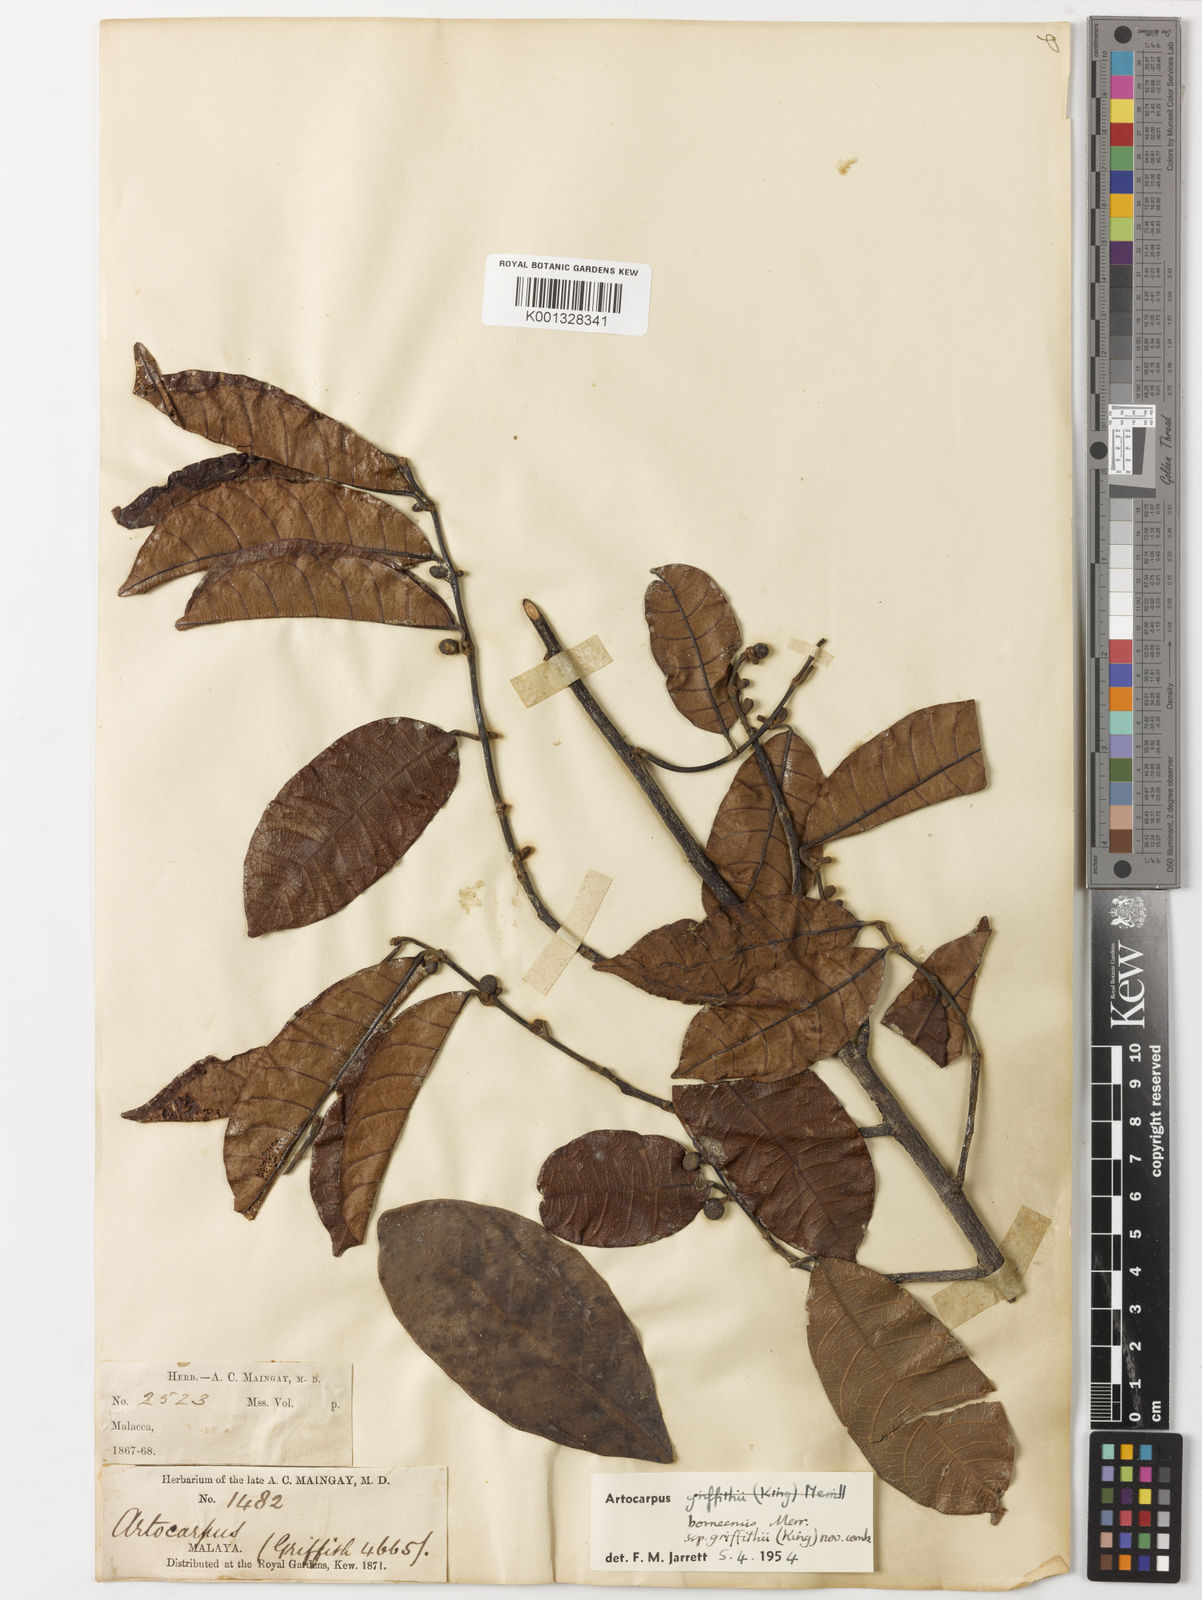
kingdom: Plantae
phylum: Tracheophyta
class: Magnoliopsida
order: Rosales
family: Moraceae
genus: Artocarpus
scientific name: Artocarpus lamellosus
